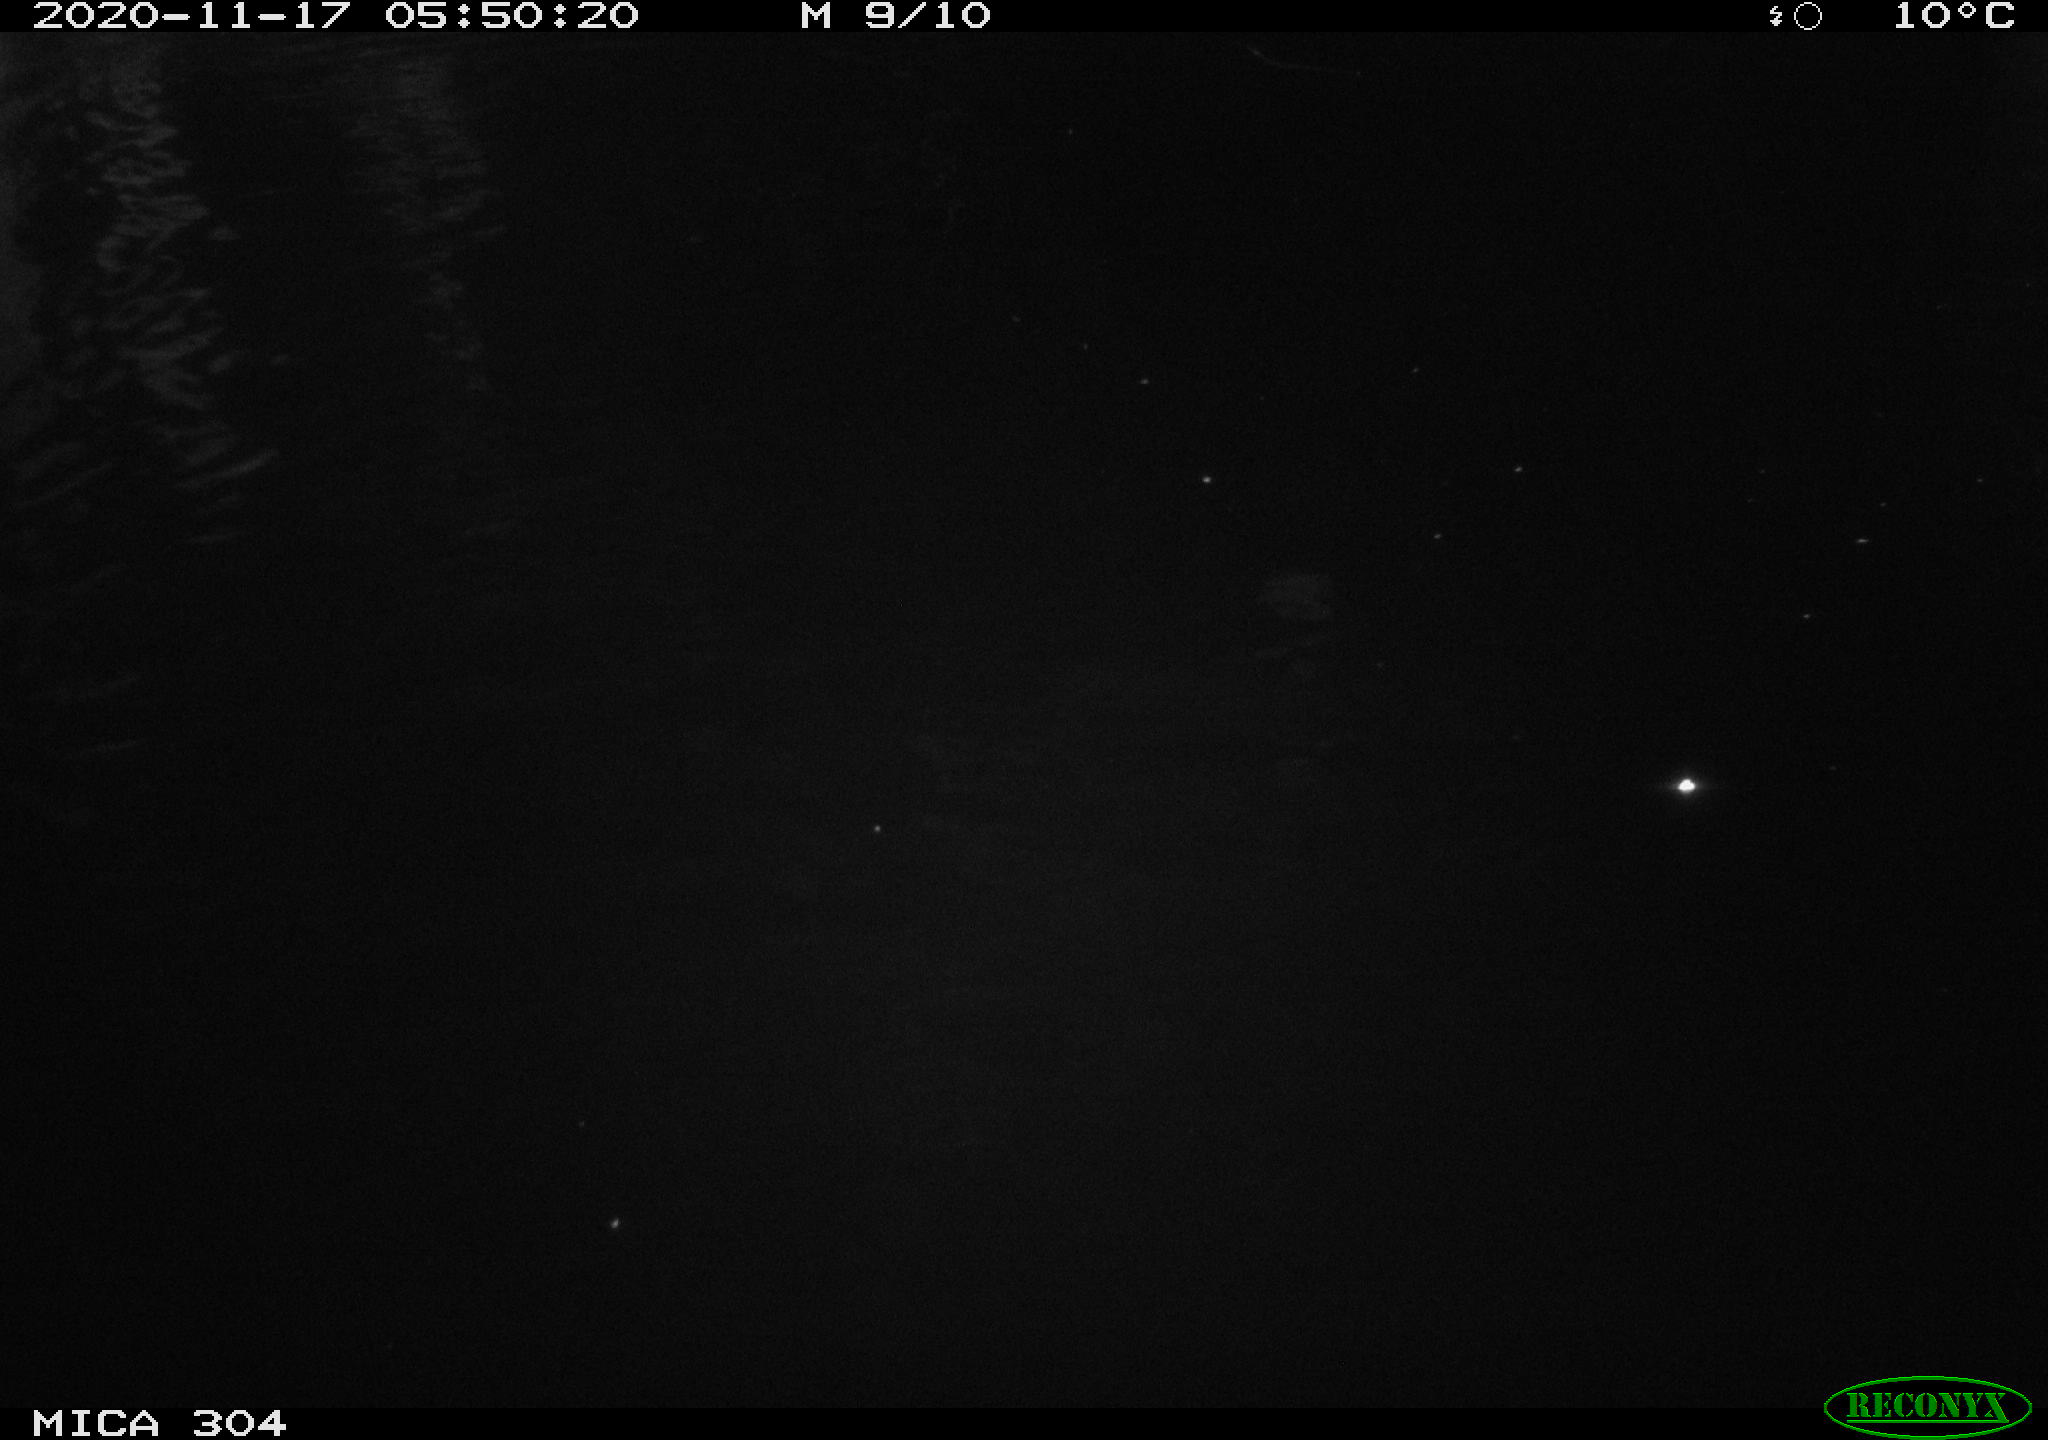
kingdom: Animalia
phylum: Chordata
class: Mammalia
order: Rodentia
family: Muridae
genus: Rattus
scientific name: Rattus norvegicus
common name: Brown rat
